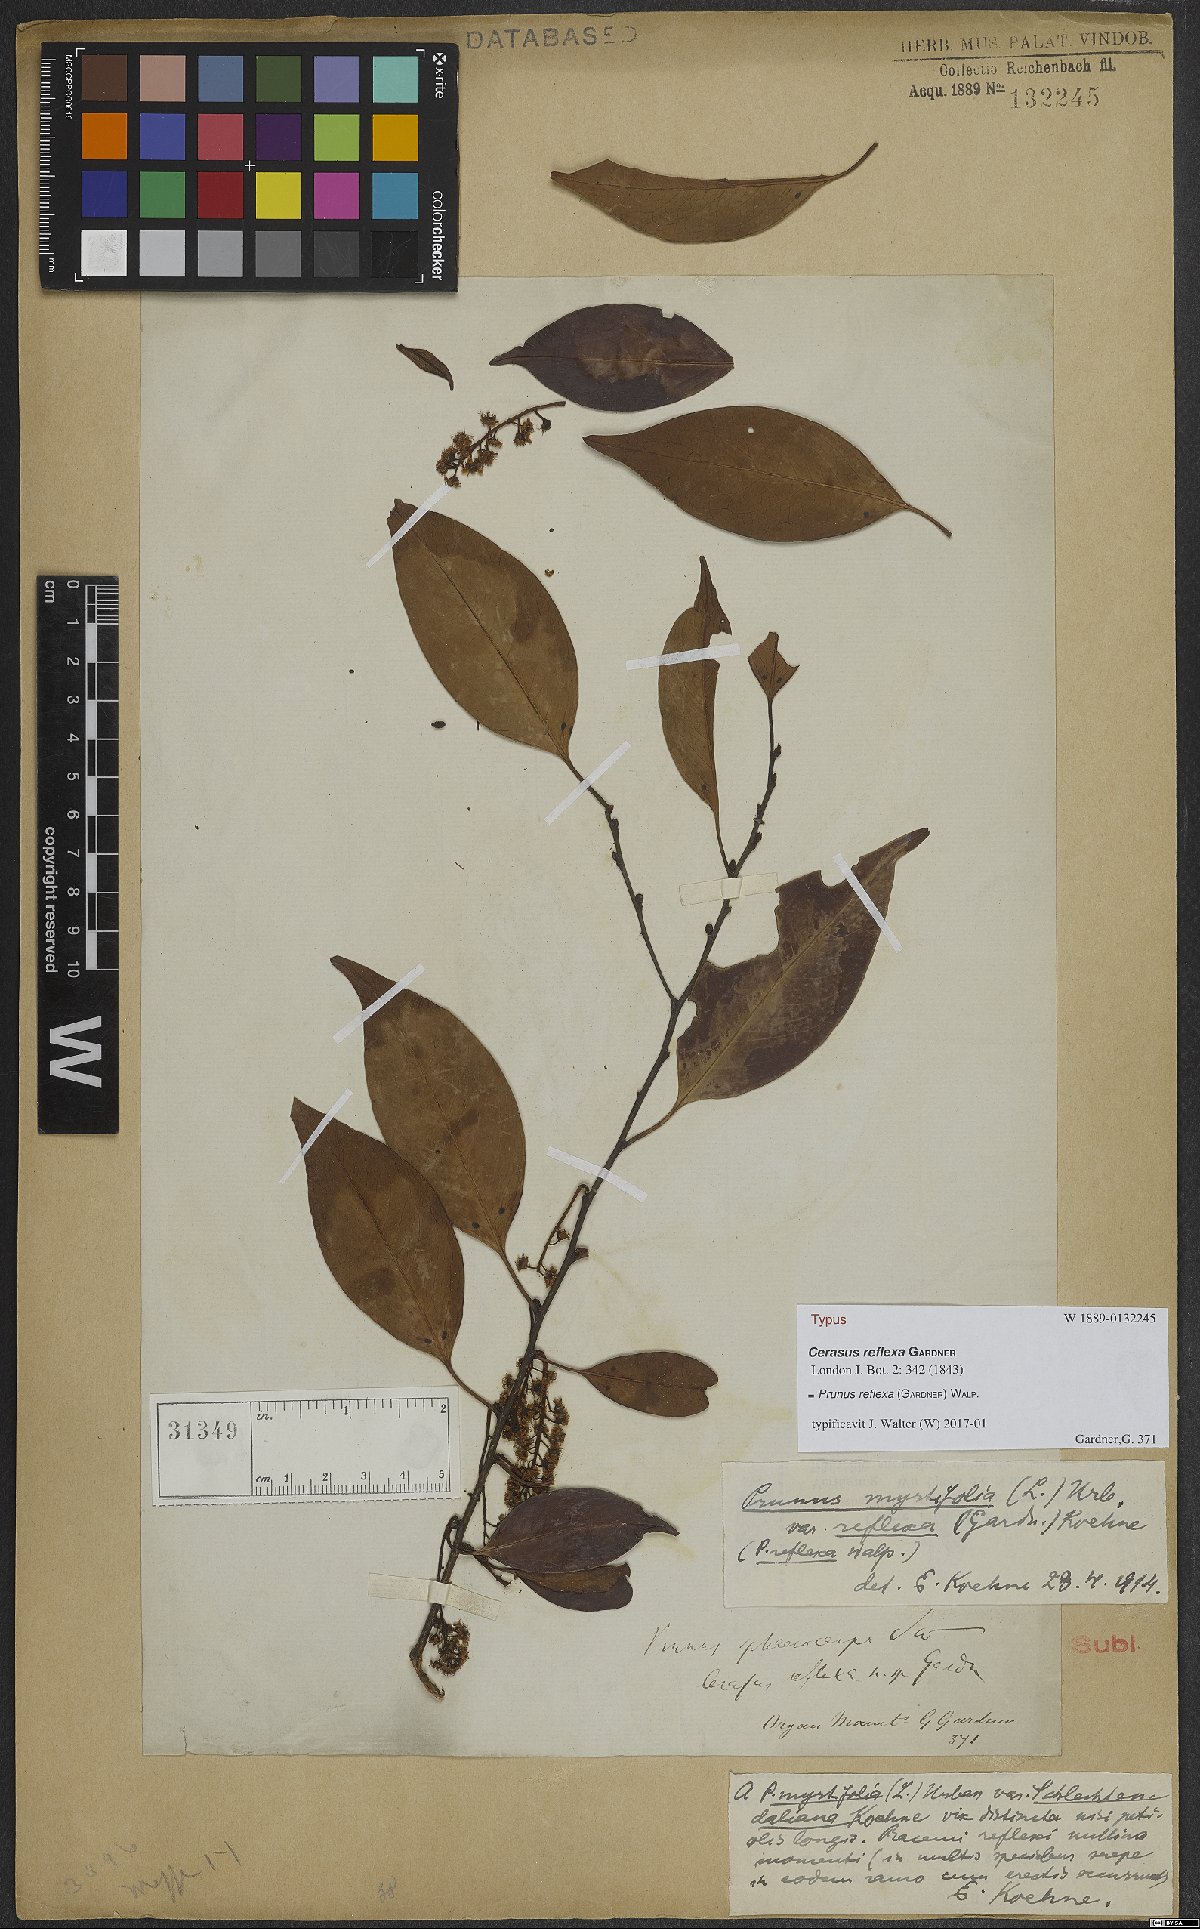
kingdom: Plantae
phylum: Tracheophyta
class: Magnoliopsida
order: Rosales
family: Rosaceae
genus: Prunus
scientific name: Prunus reflexa
